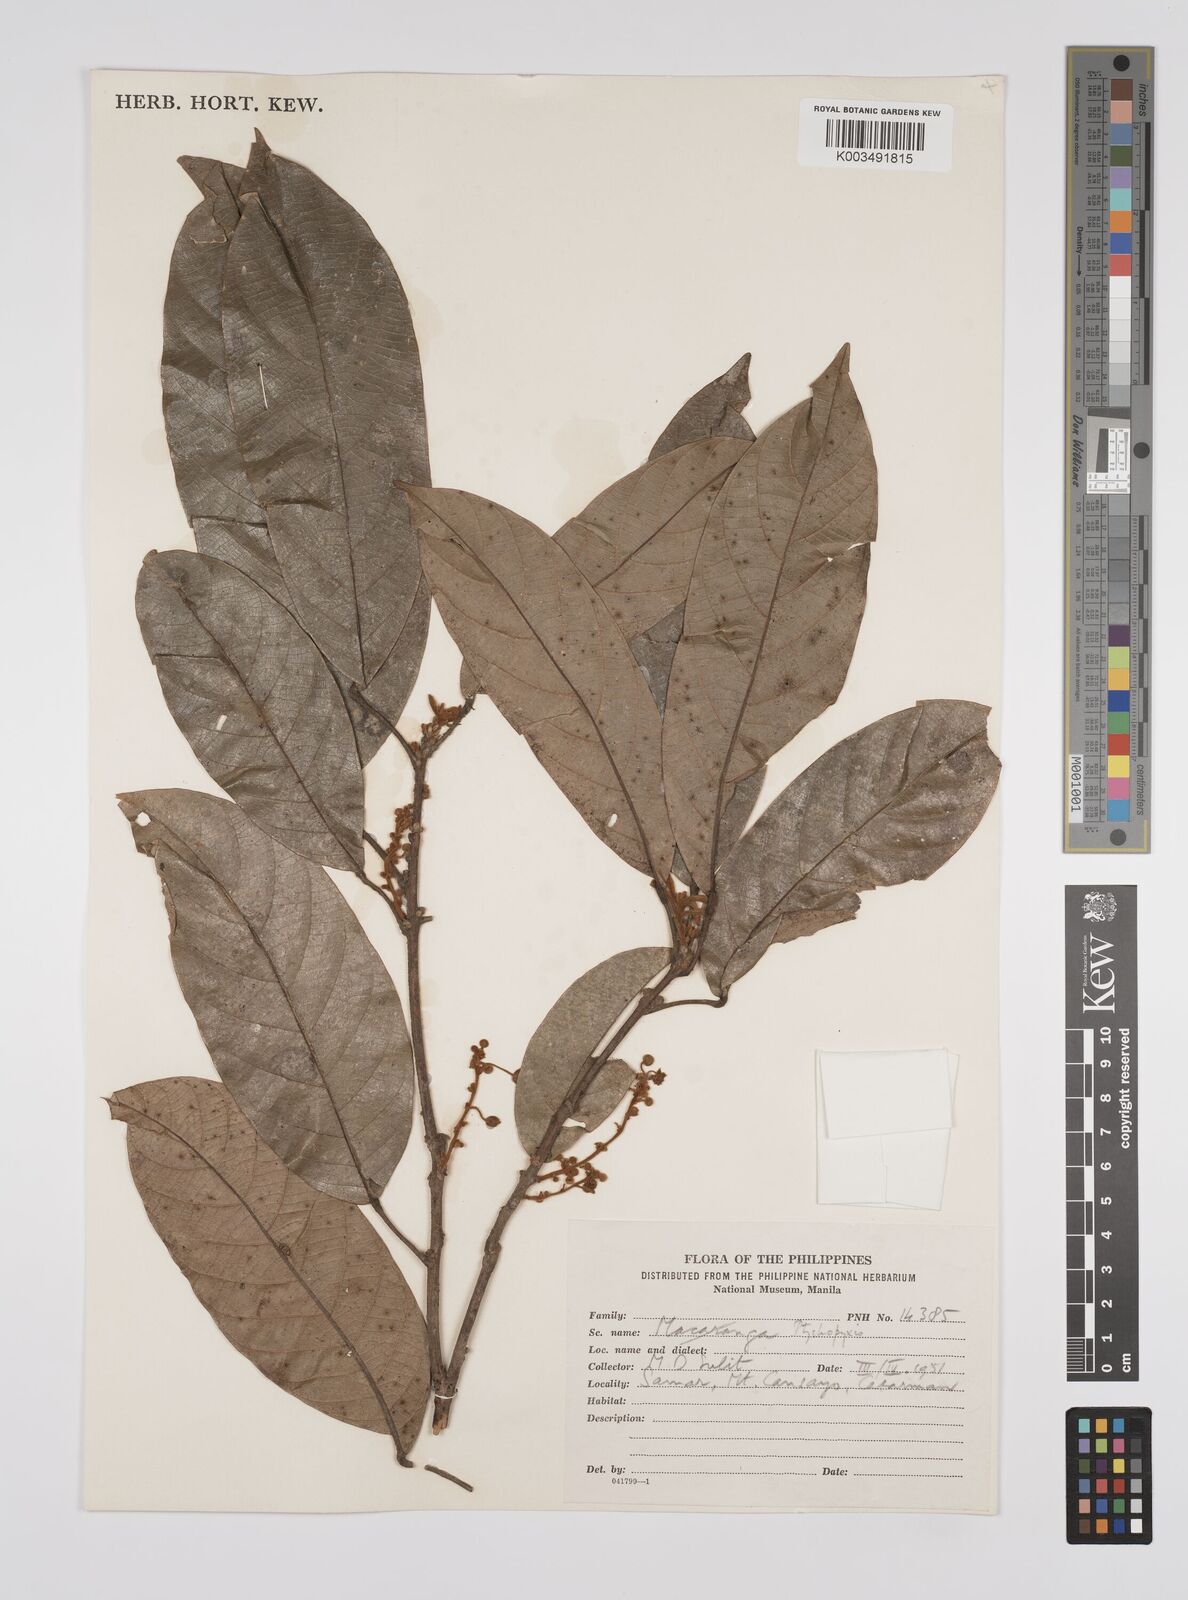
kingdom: Plantae
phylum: Tracheophyta
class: Magnoliopsida
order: Malpighiales
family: Euphorbiaceae
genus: Ptychopyxis
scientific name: Ptychopyxis bacciformis
